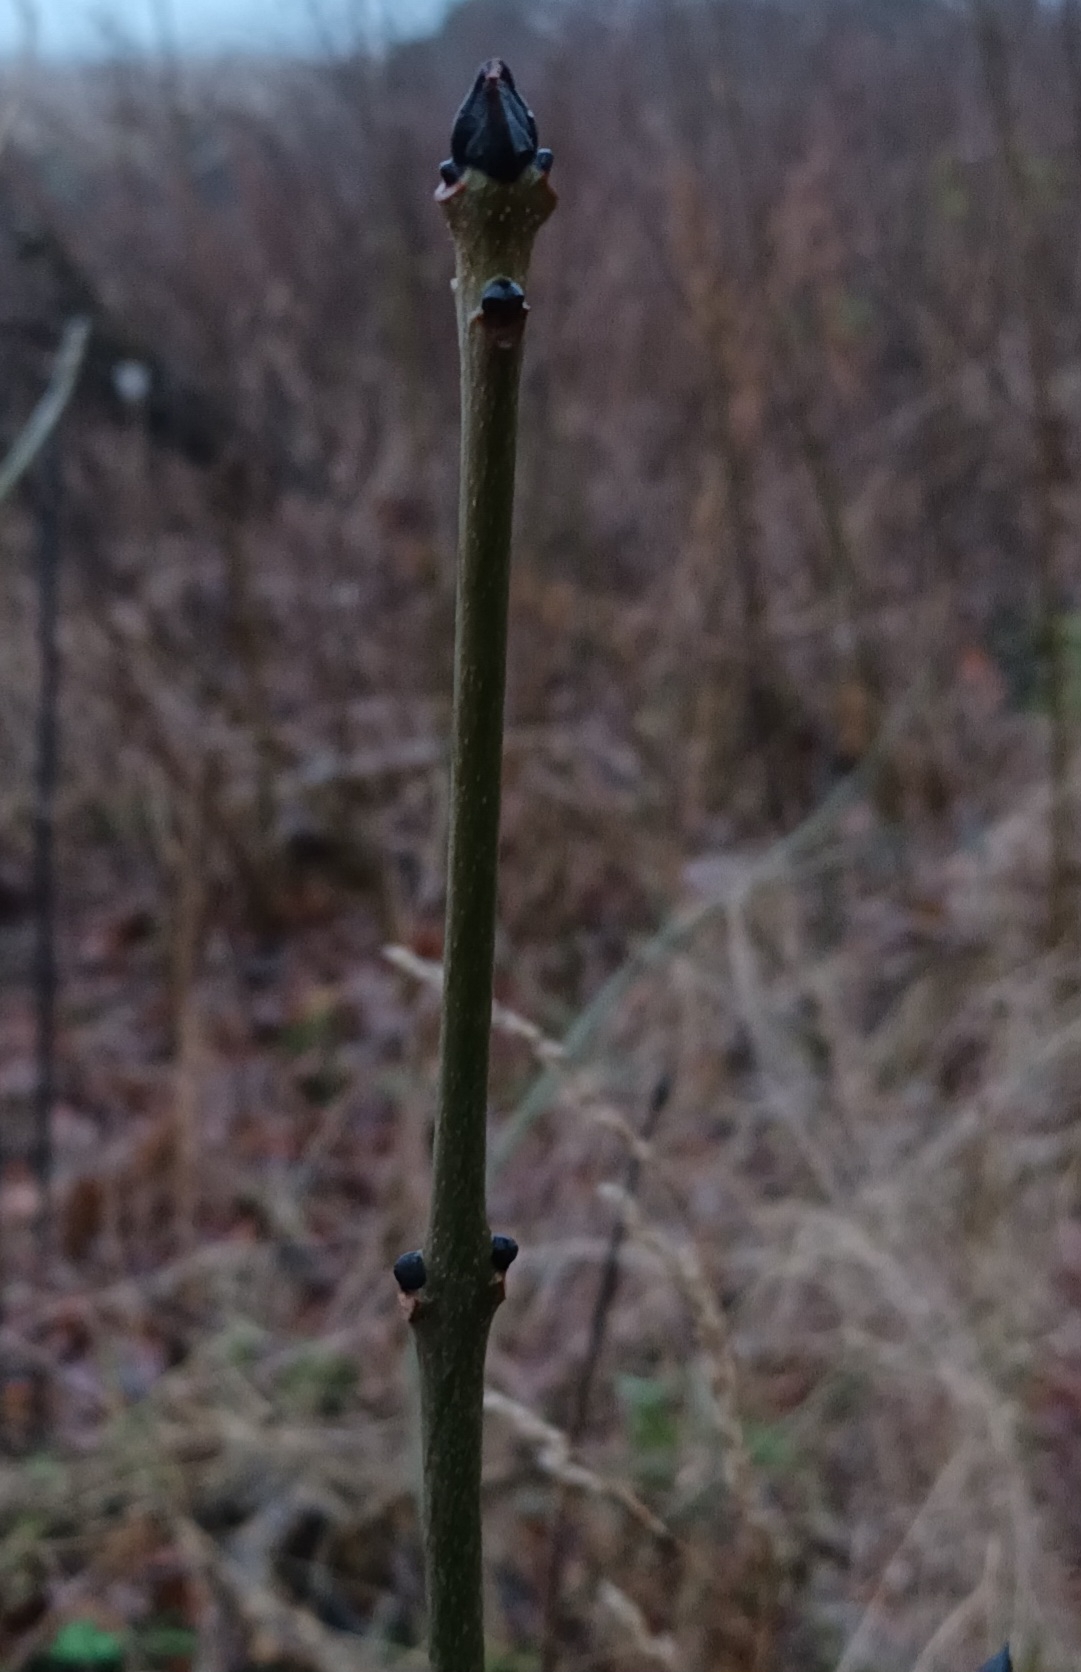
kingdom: Plantae
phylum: Tracheophyta
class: Magnoliopsida
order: Lamiales
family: Oleaceae
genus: Fraxinus
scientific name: Fraxinus excelsior
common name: Ask
